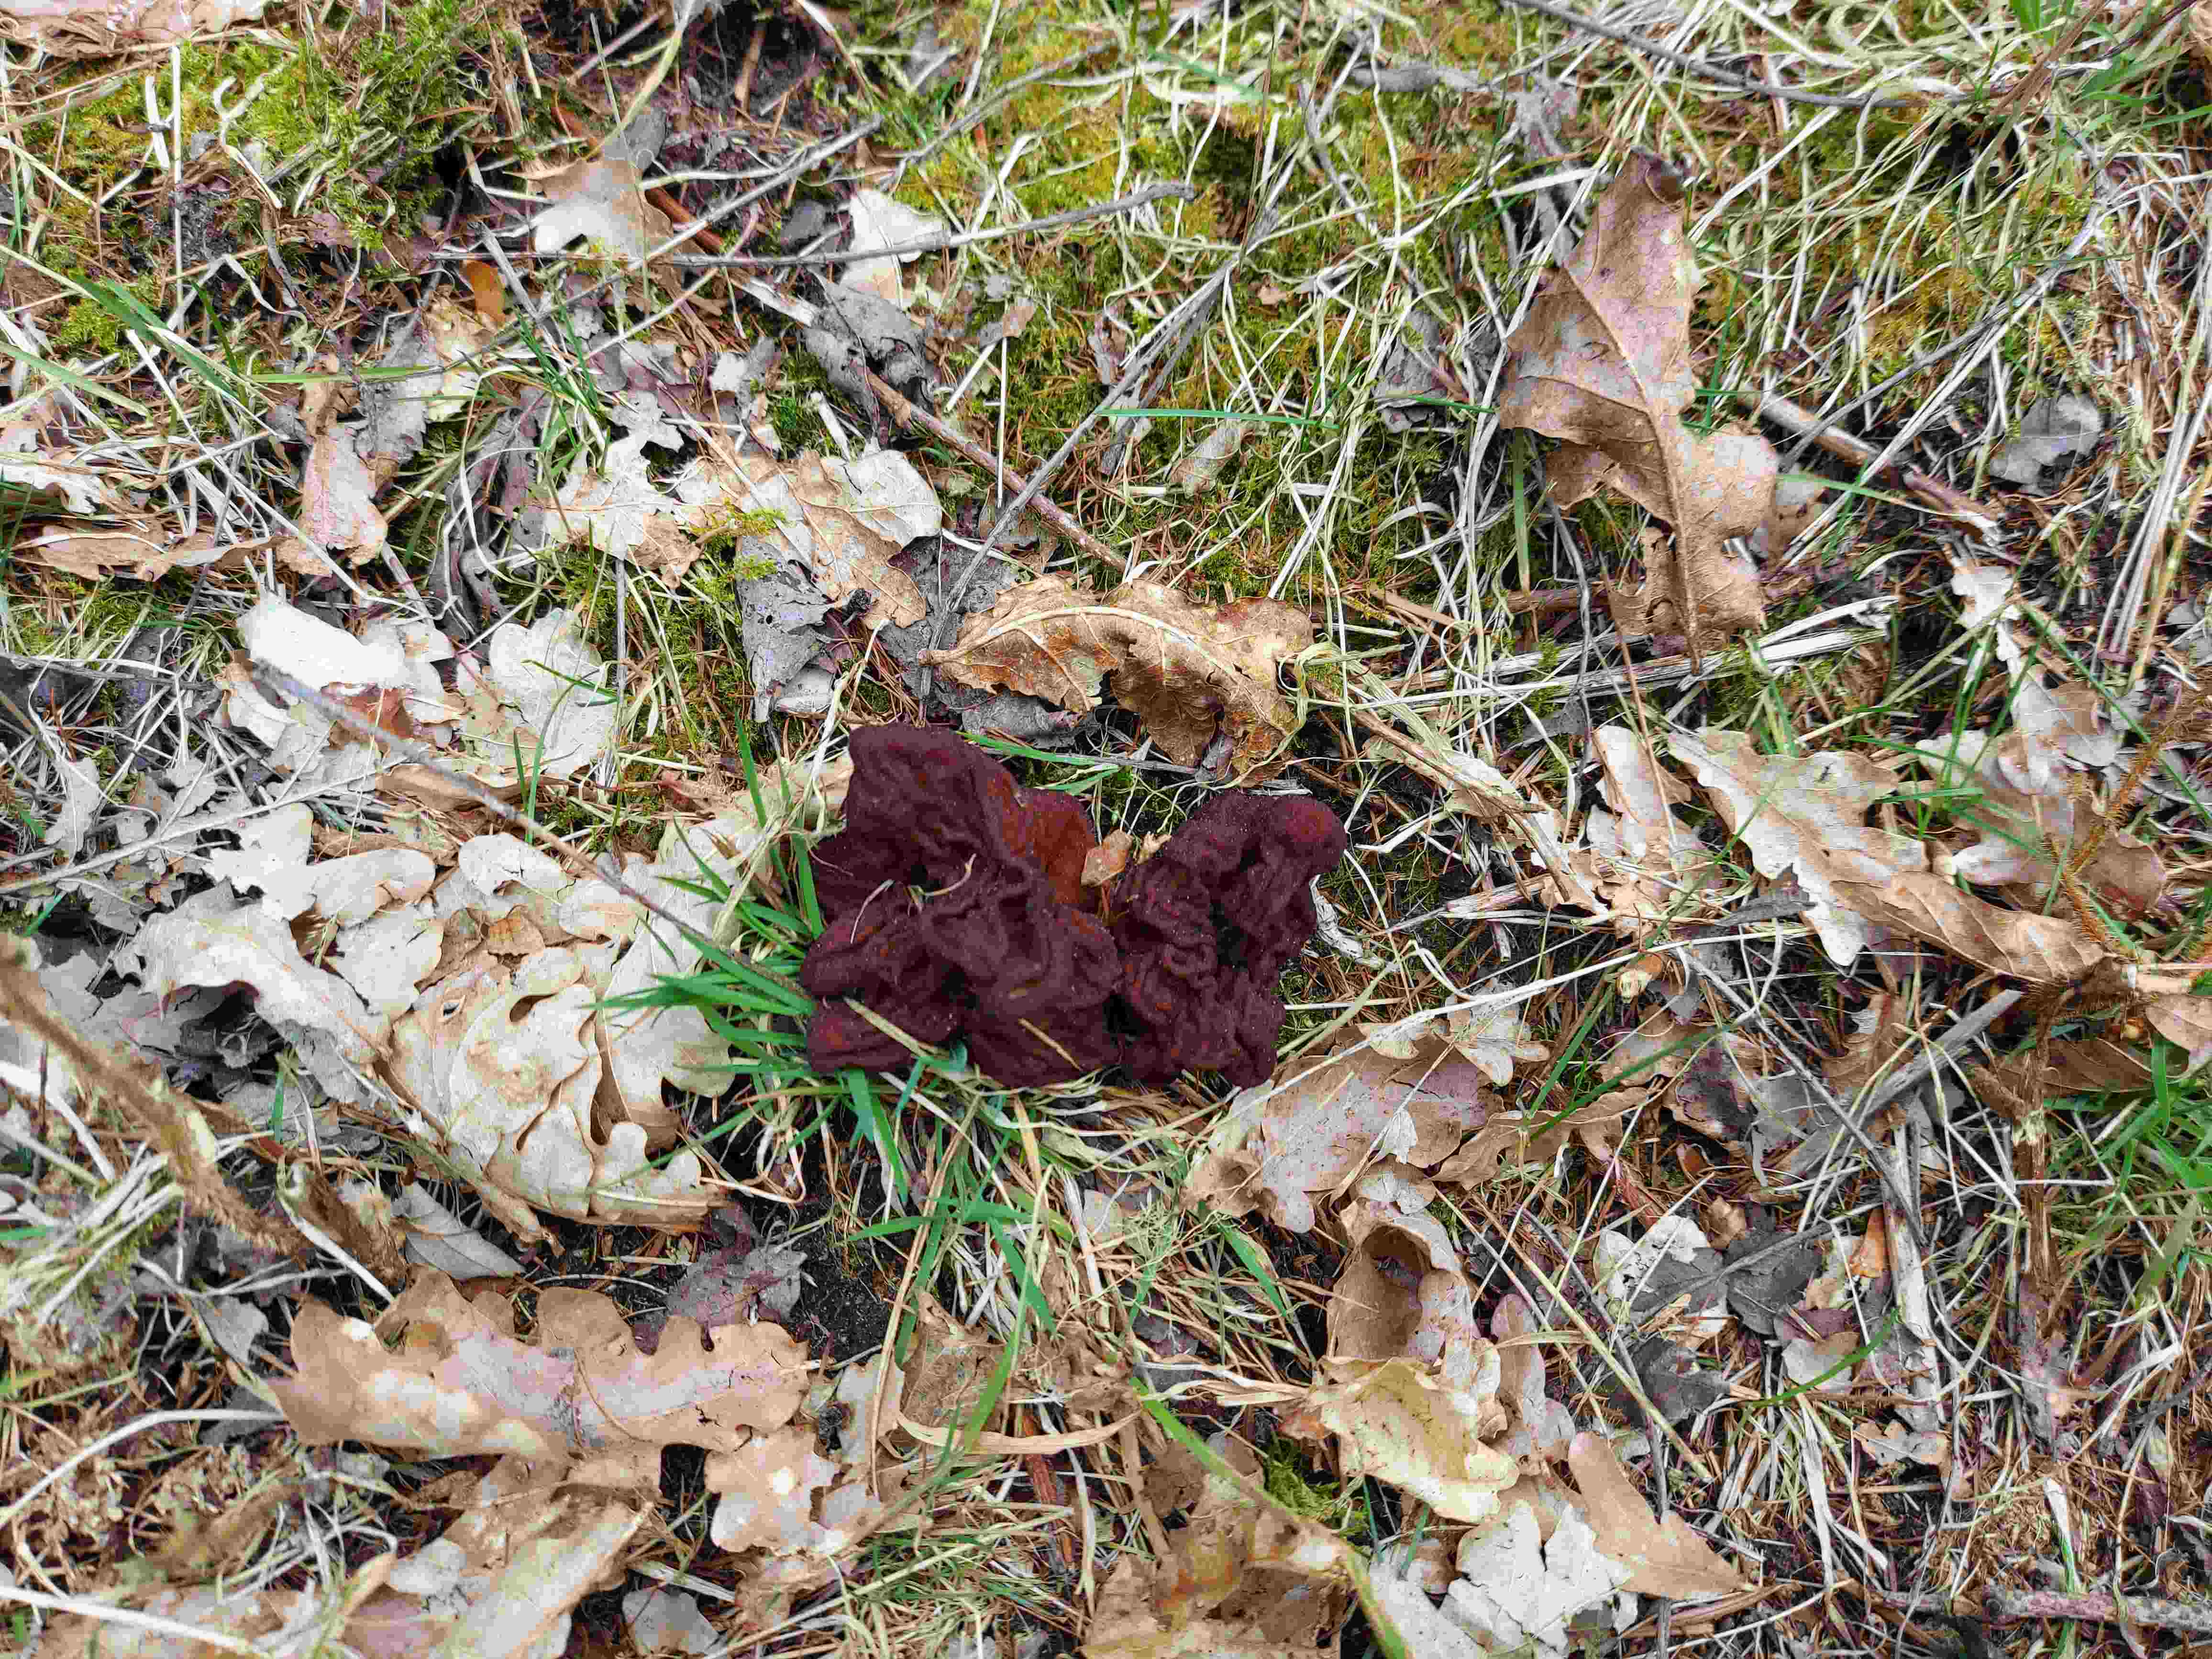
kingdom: Fungi
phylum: Ascomycota
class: Pezizomycetes
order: Pezizales
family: Discinaceae
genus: Gyromitra
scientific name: Gyromitra esculenta
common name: ægte stenmorkel
